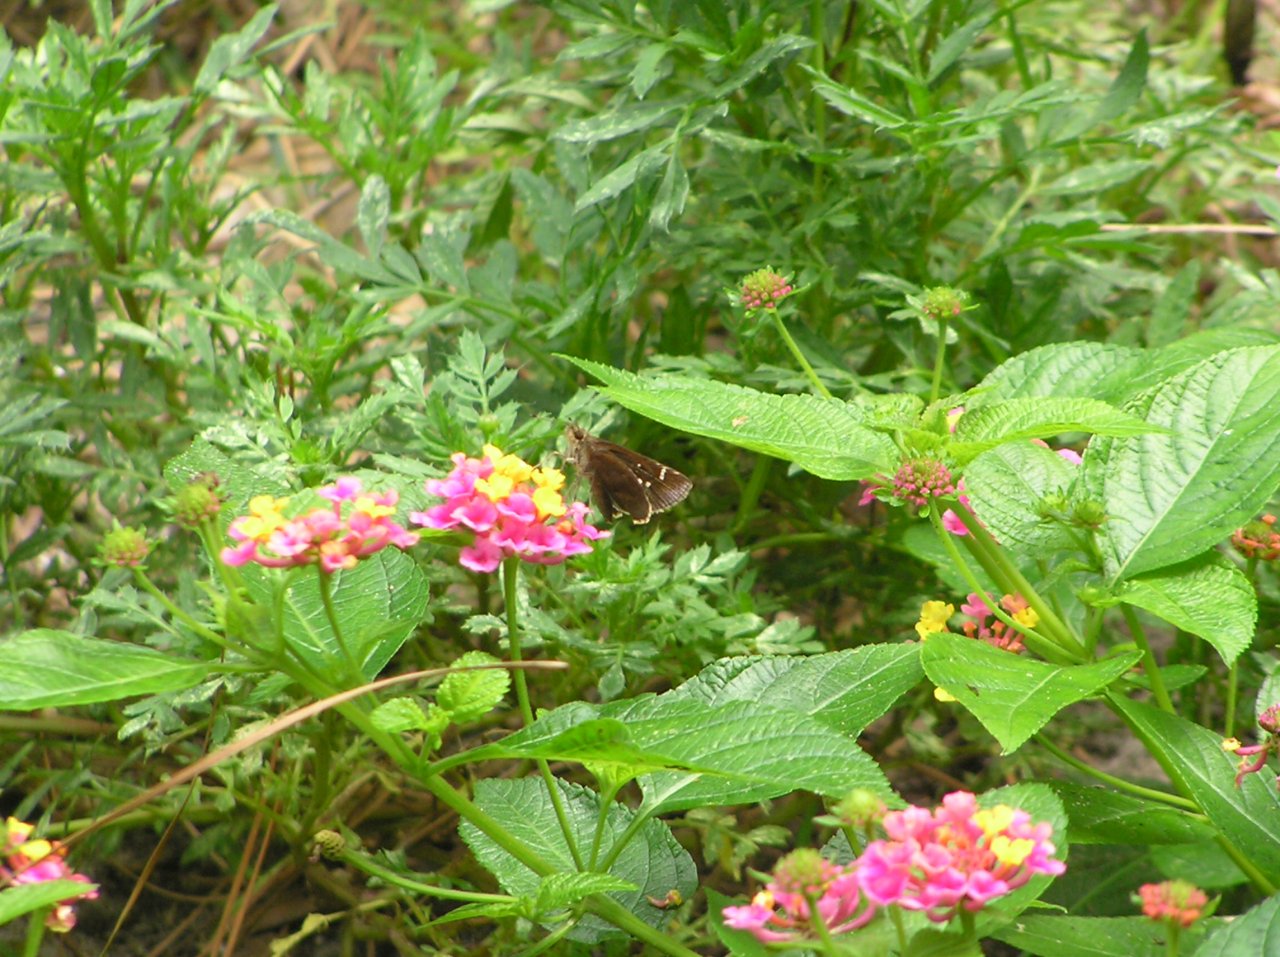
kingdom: Animalia
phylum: Arthropoda
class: Insecta
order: Lepidoptera
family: Hesperiidae
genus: Autochton
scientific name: Autochton
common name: Northern Cloudywing
